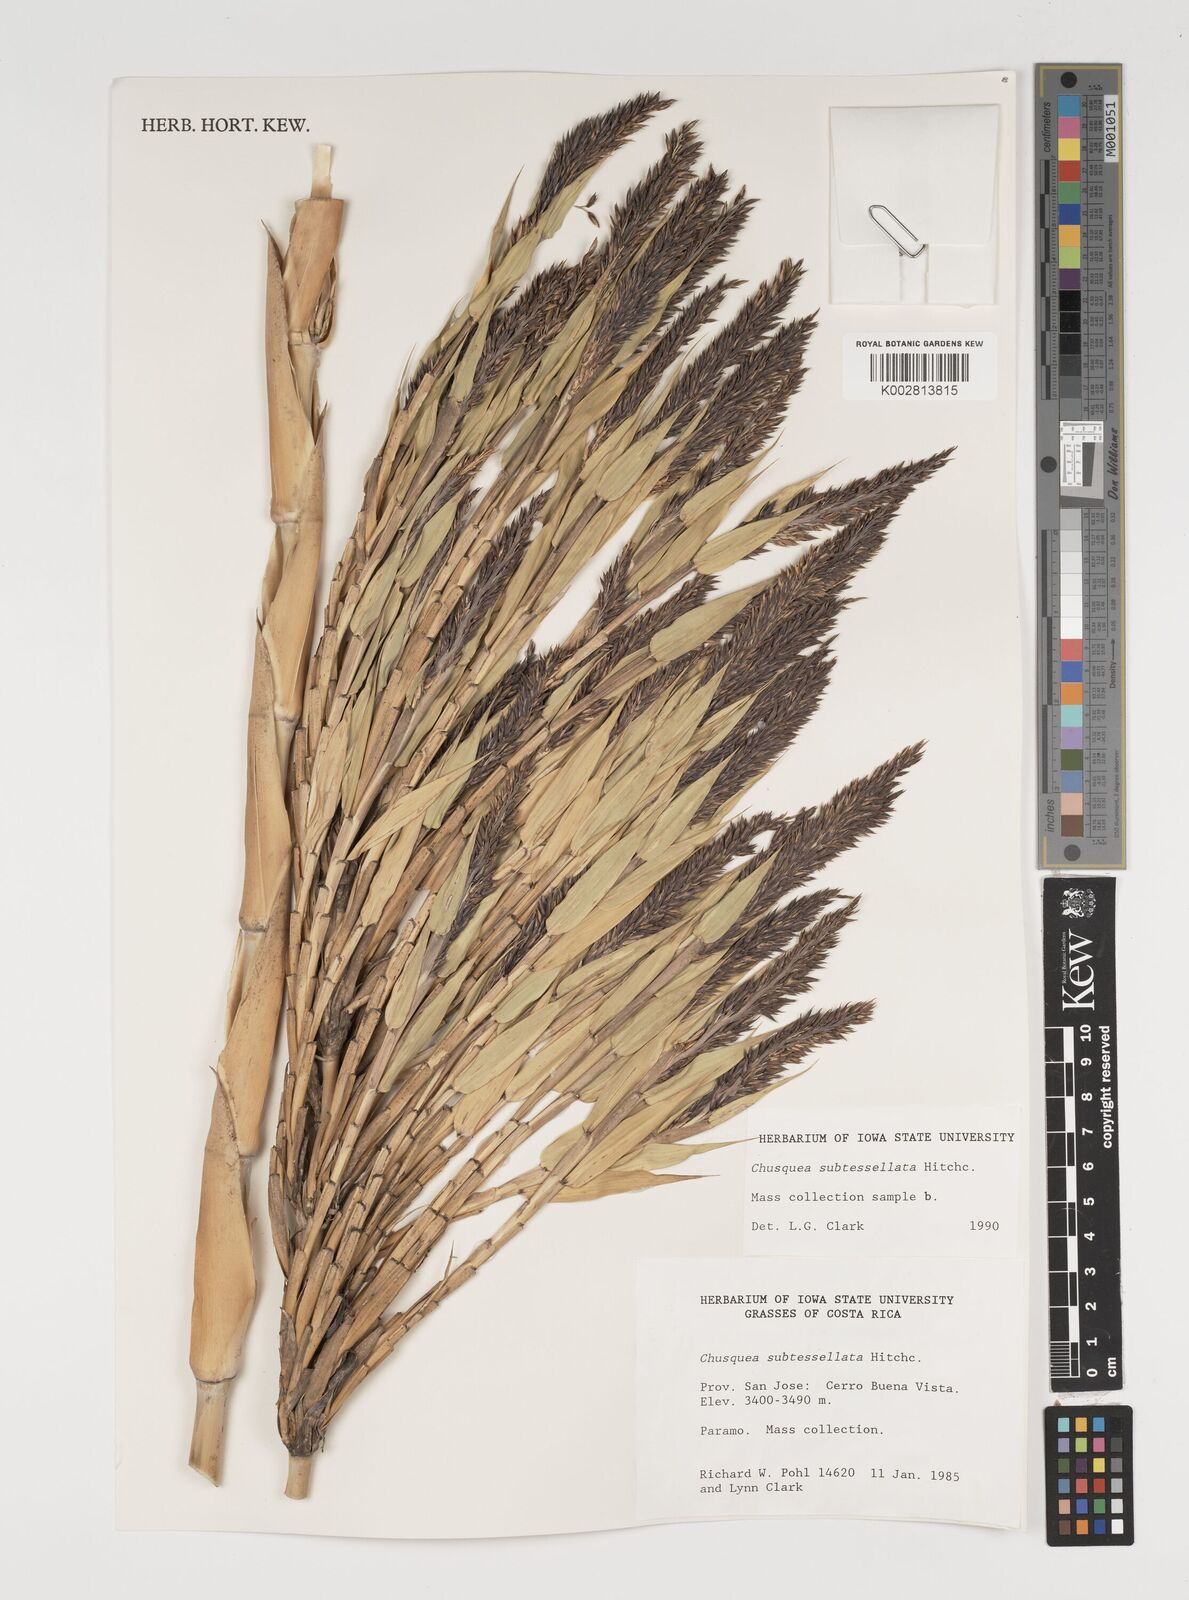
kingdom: Plantae
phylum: Tracheophyta
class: Liliopsida
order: Poales
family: Poaceae
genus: Chusquea
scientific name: Chusquea subtessellata
